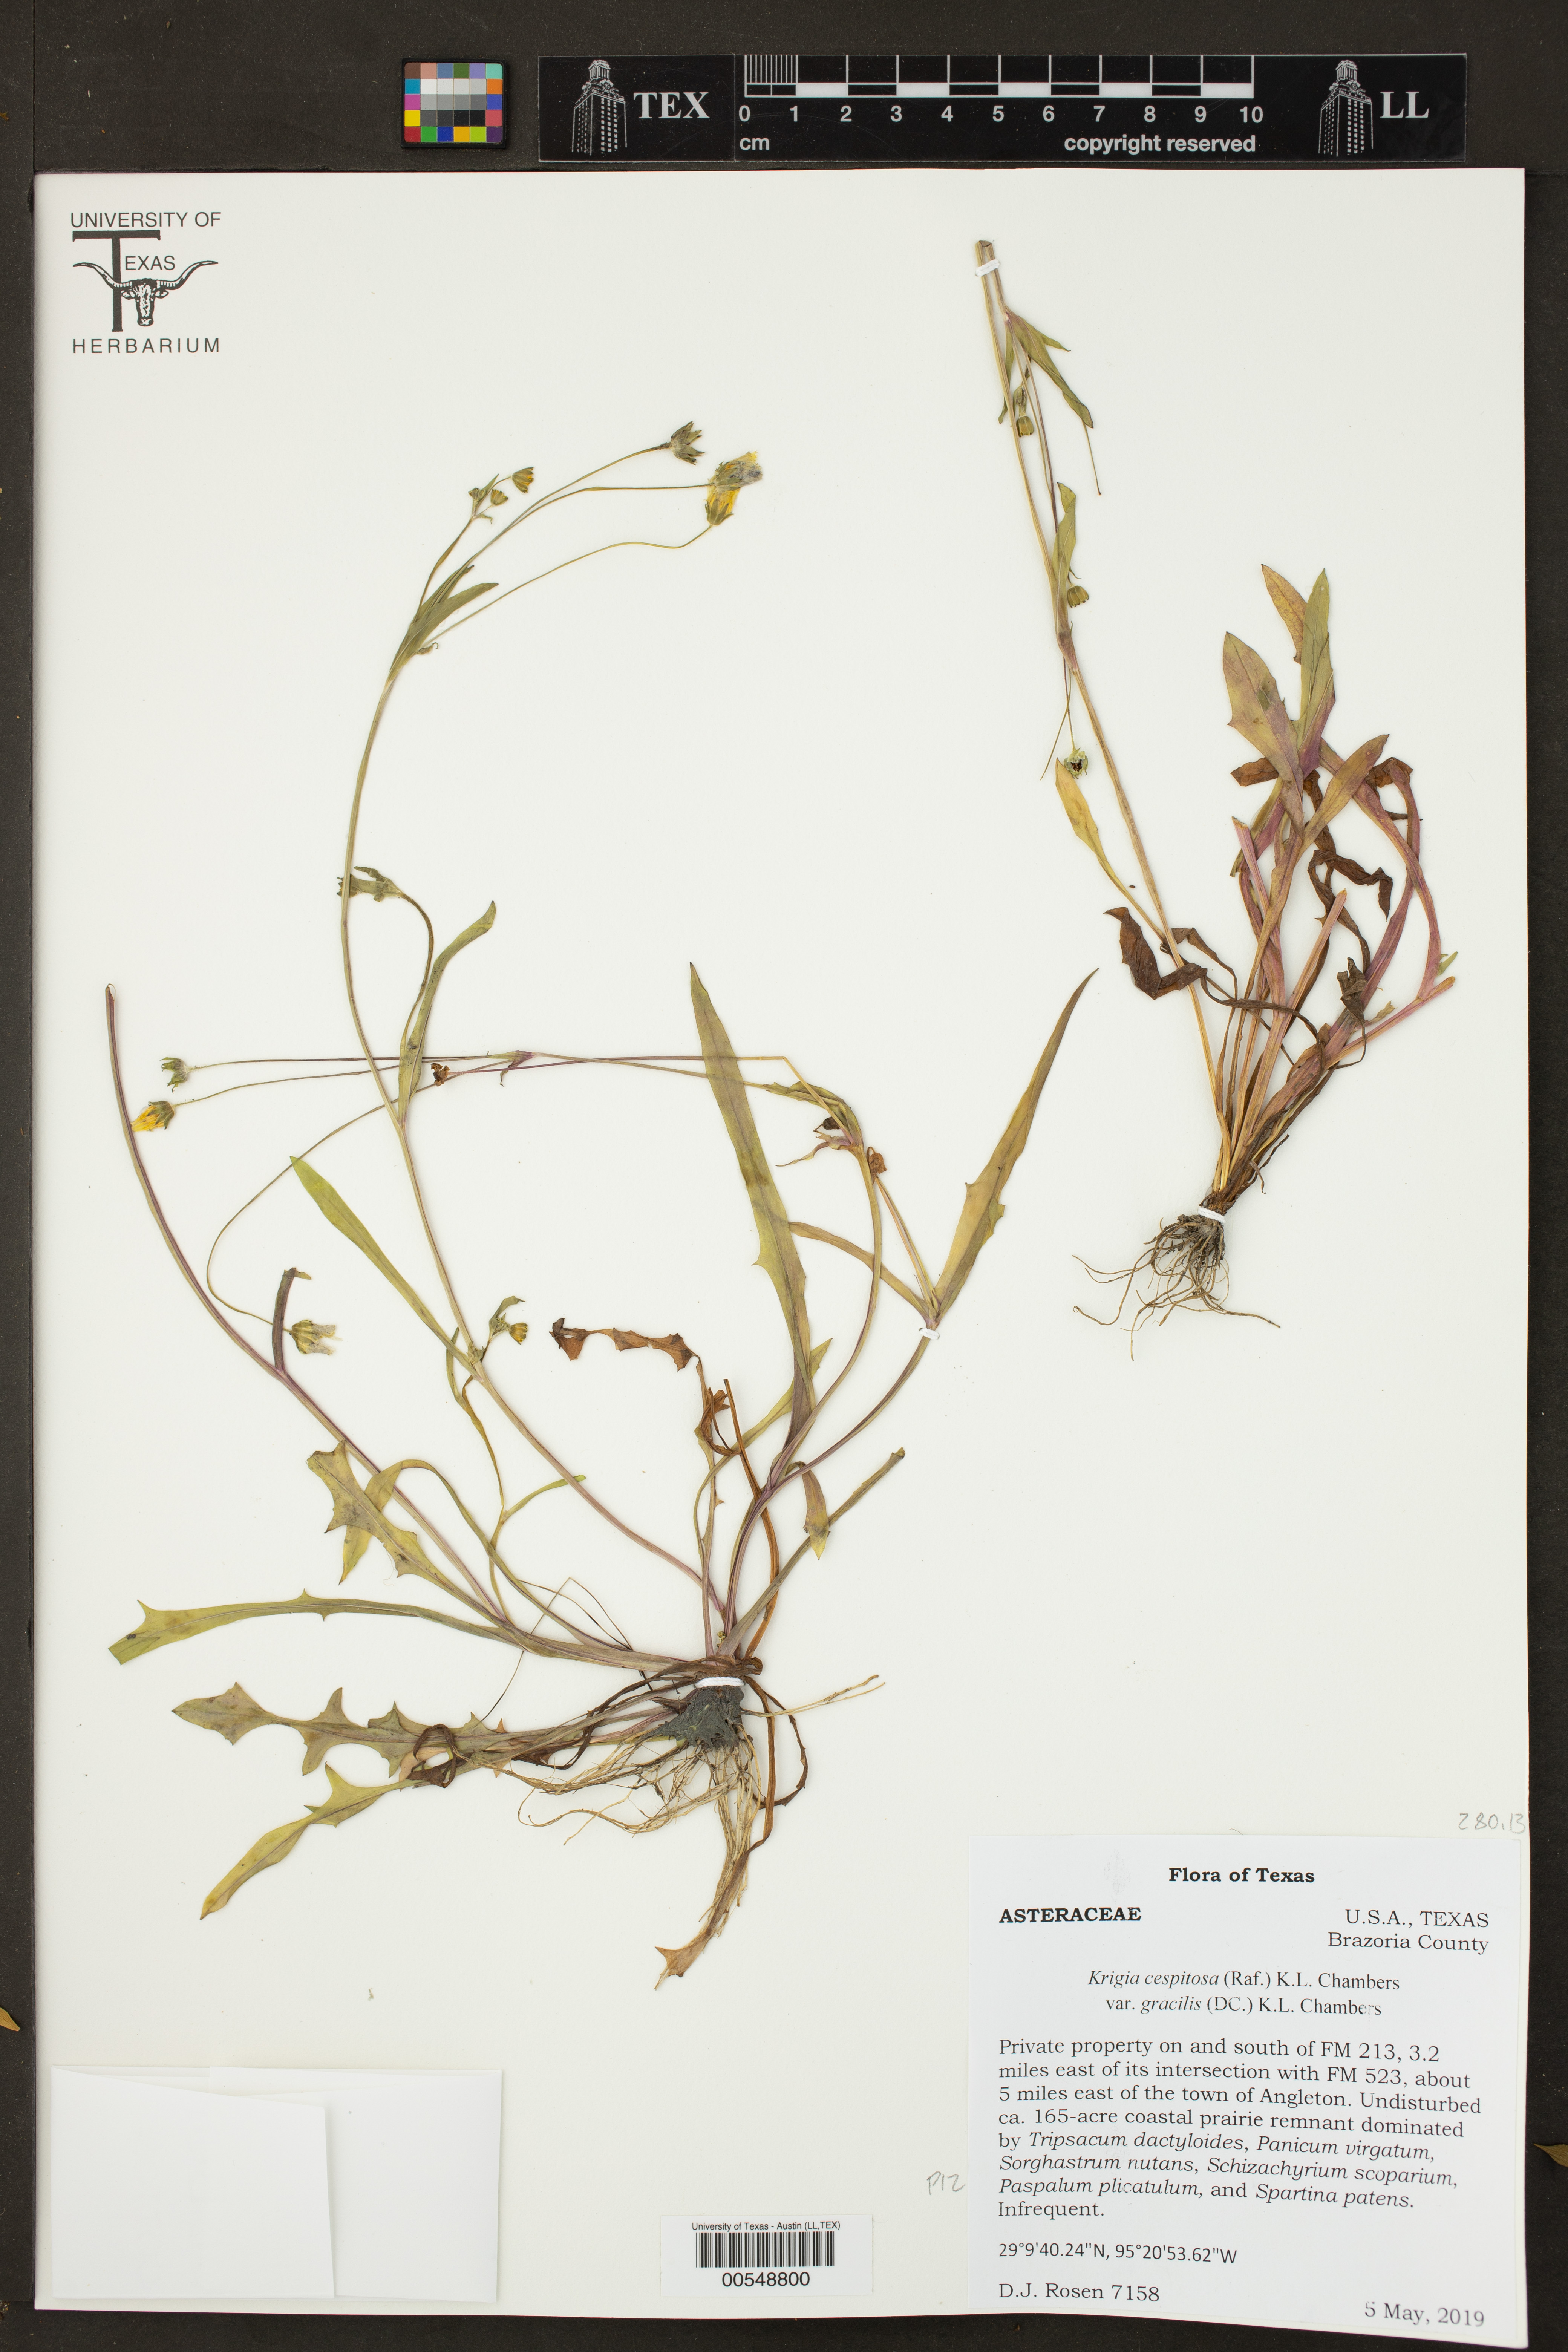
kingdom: Plantae
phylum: Tracheophyta
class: Magnoliopsida
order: Asterales
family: Asteraceae
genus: Krigia
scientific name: Krigia cespitosa
